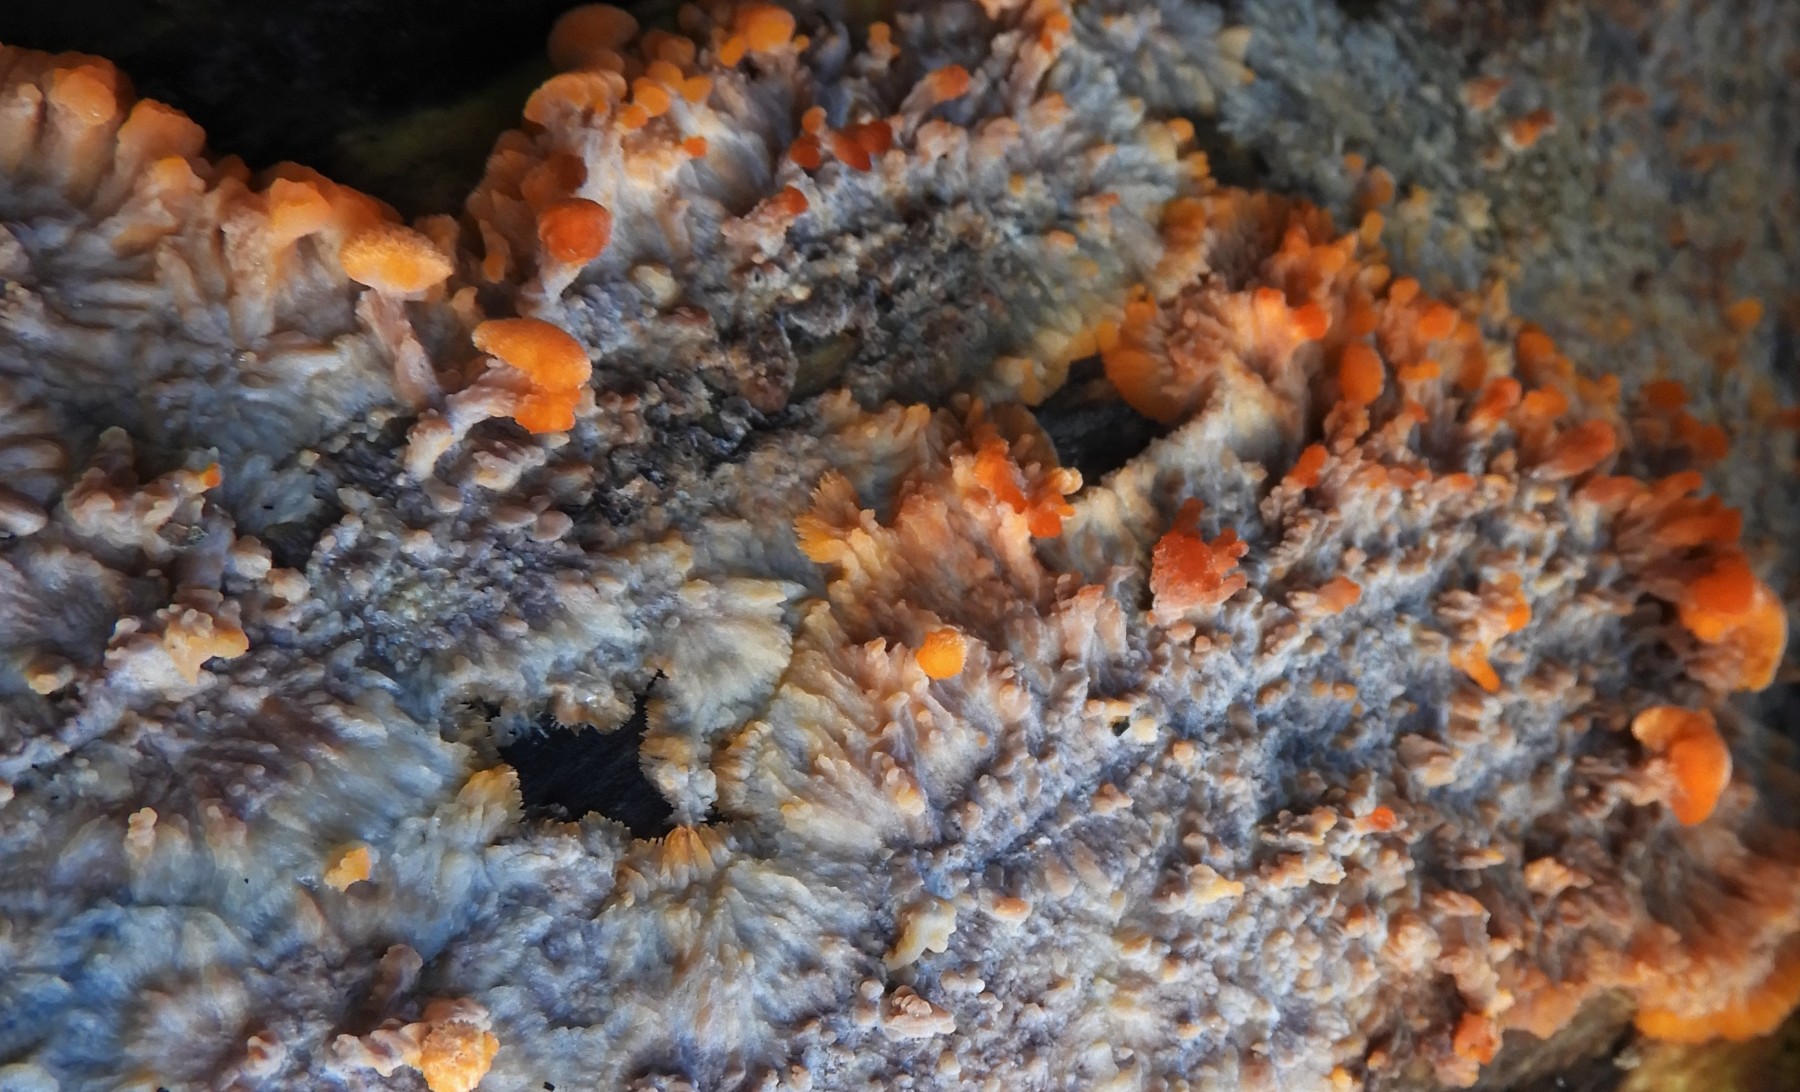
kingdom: Fungi
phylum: Basidiomycota
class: Agaricomycetes
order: Polyporales
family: Meruliaceae
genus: Phlebia
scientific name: Phlebia radiata
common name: stråle-åresvamp
